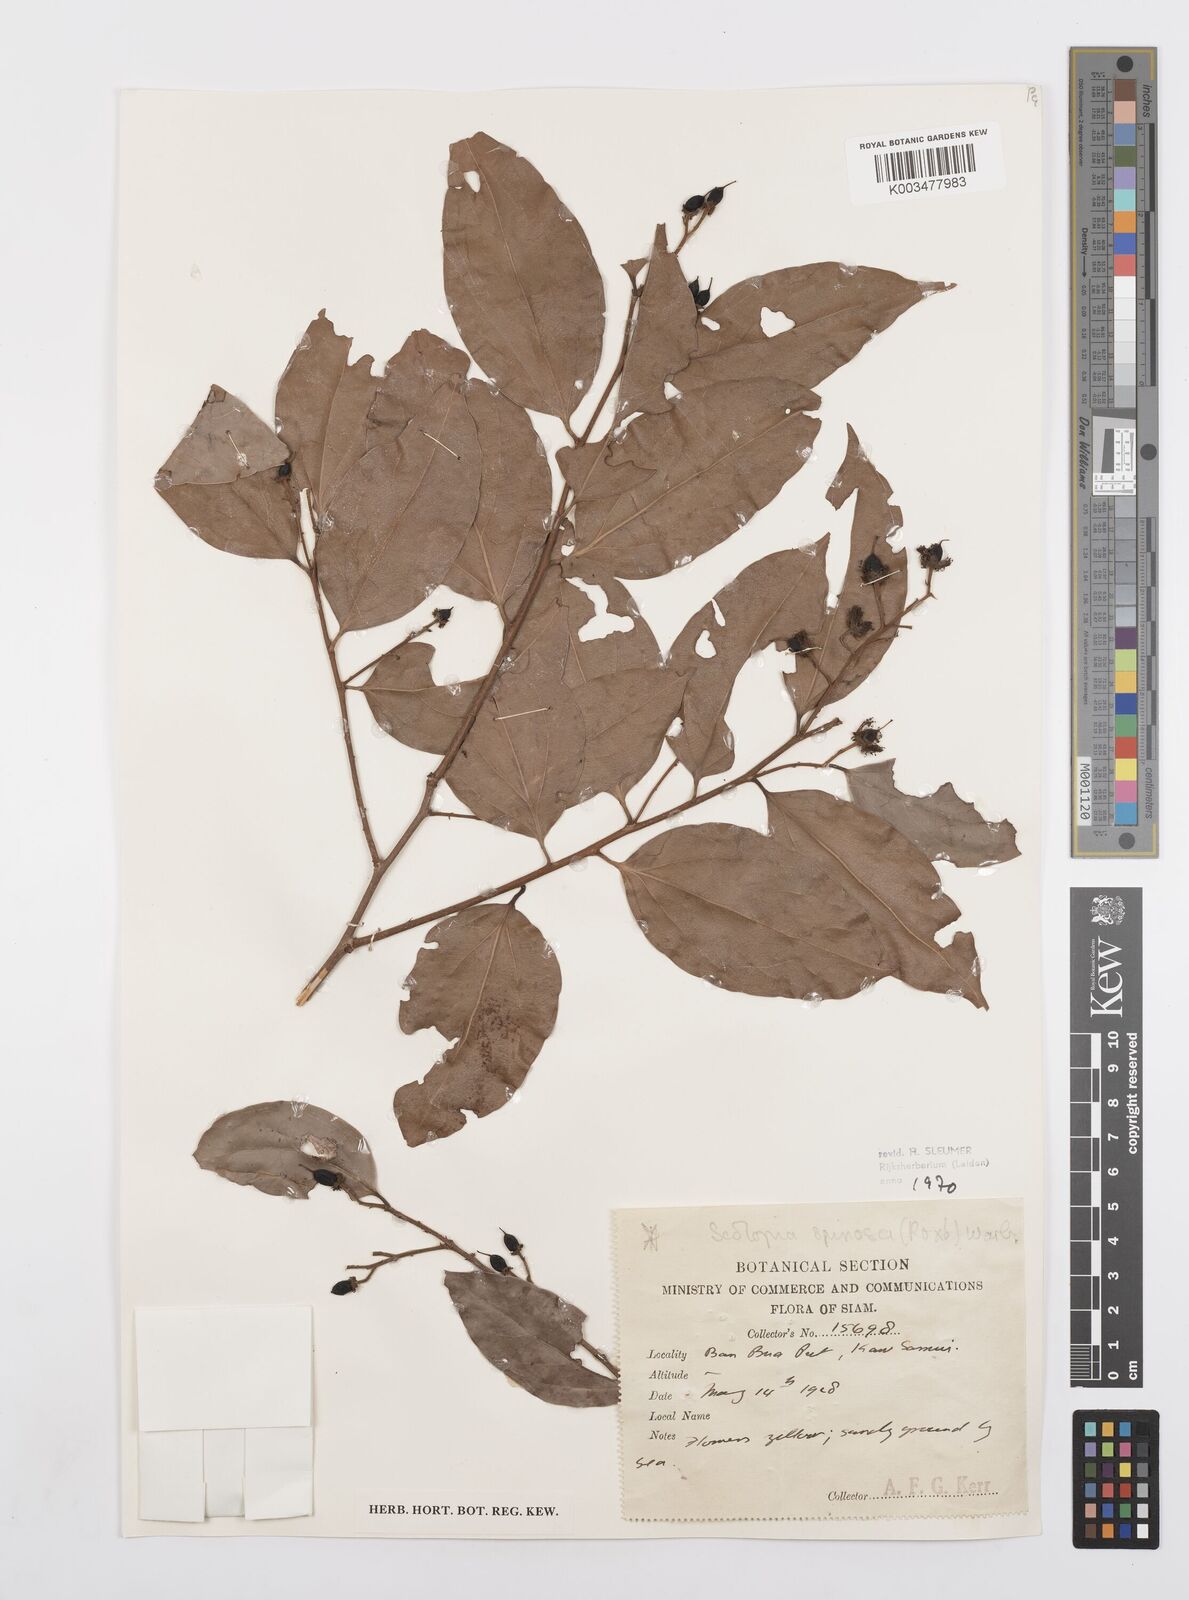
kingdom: Plantae
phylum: Tracheophyta
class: Magnoliopsida
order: Malpighiales
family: Salicaceae
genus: Scolopia
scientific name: Scolopia spinosa
